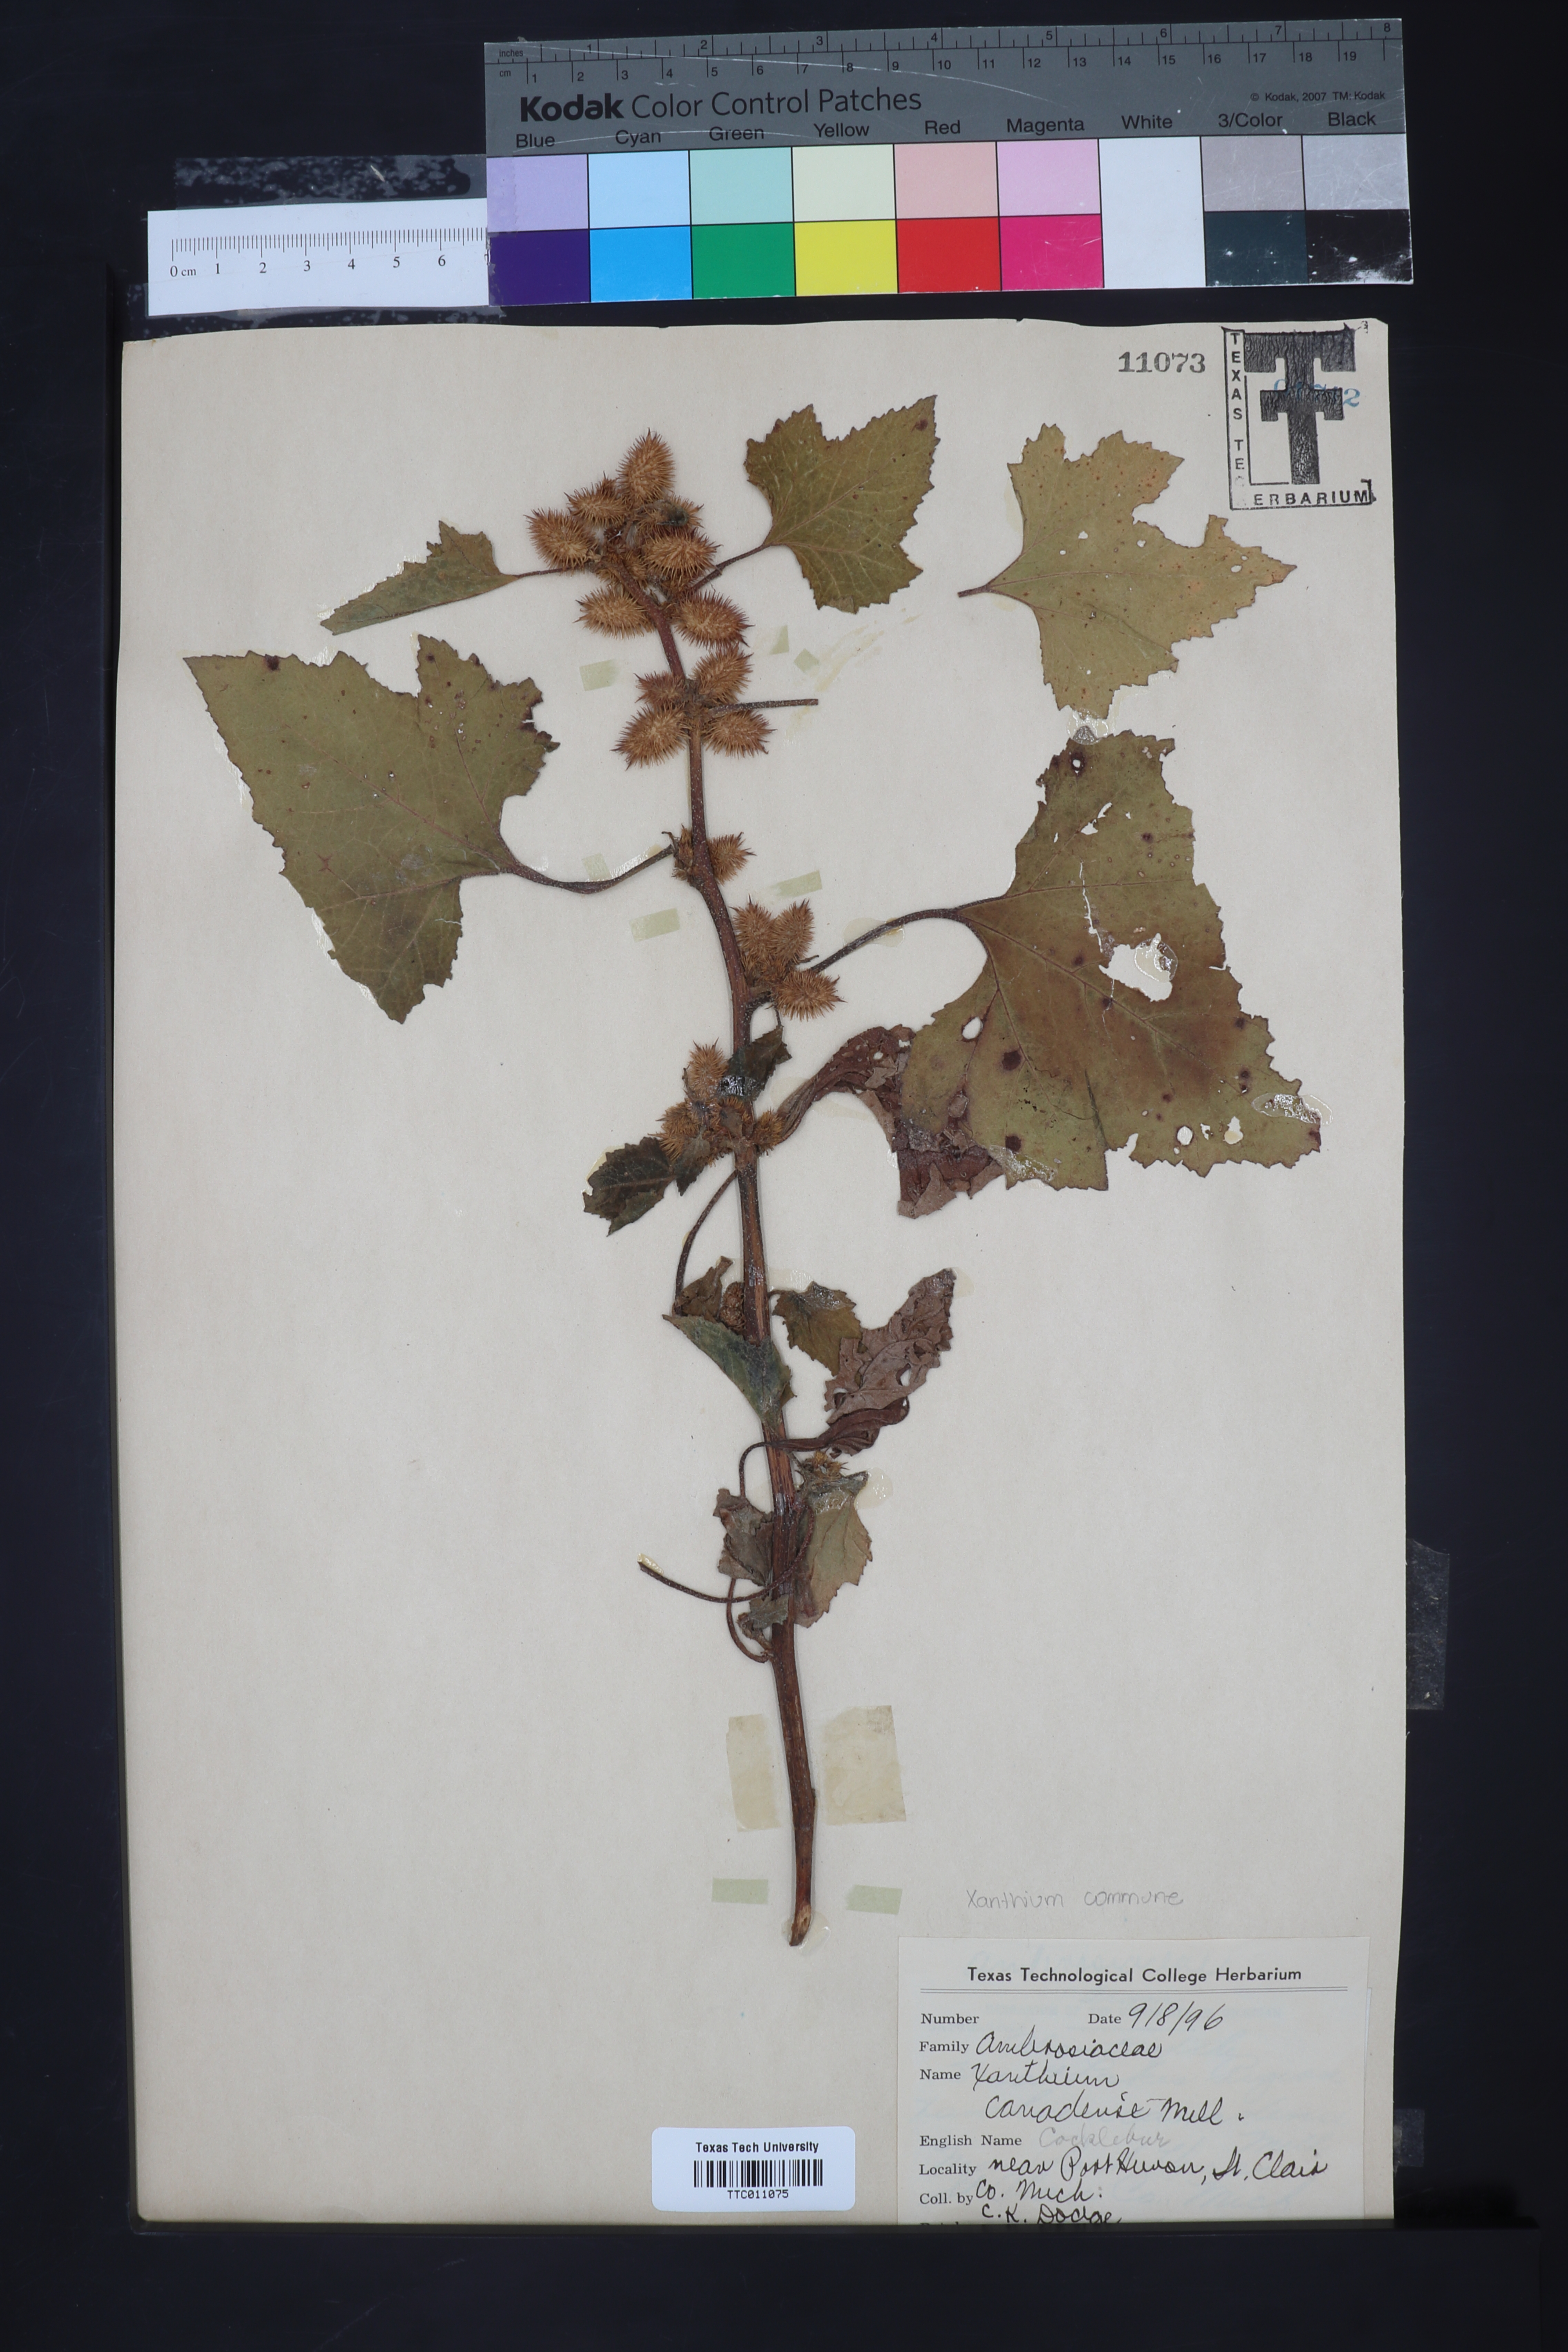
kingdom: Plantae
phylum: Tracheophyta
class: Magnoliopsida
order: Asterales
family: Asteraceae
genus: Xanthium
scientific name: Xanthium orientale
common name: Californian burr
